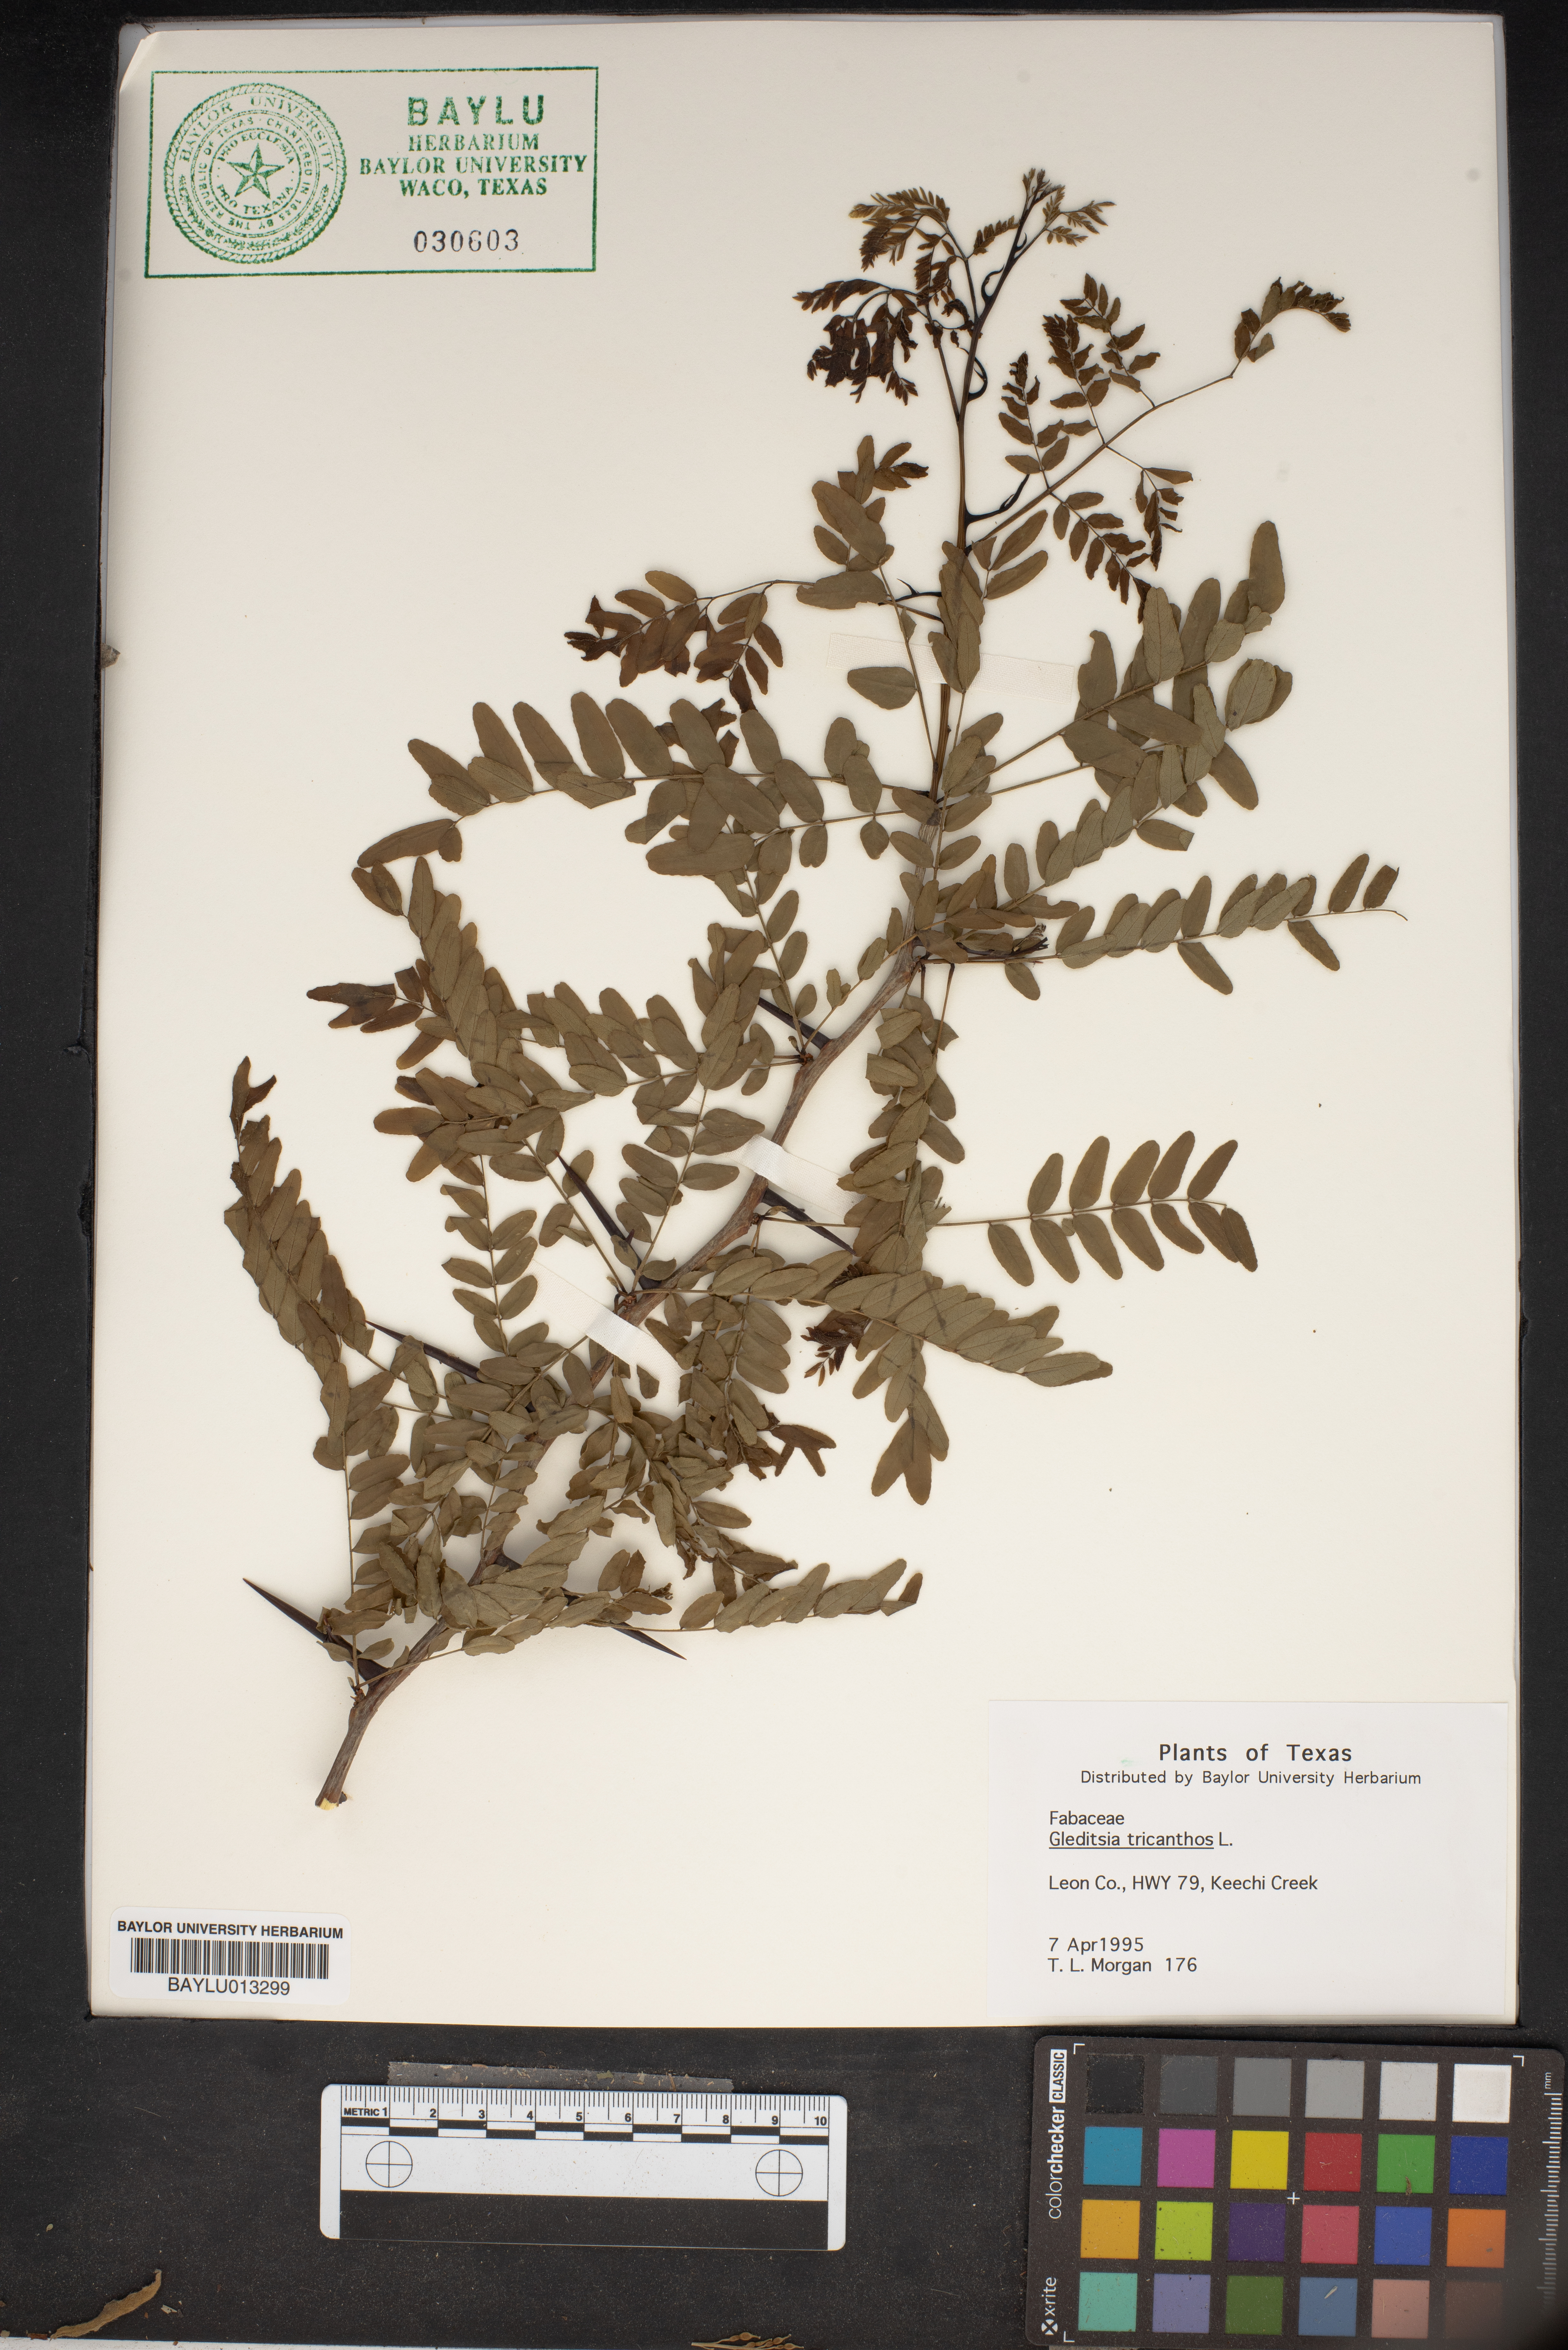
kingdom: Plantae
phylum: Tracheophyta
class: Magnoliopsida
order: Fabales
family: Fabaceae
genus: Gleditsia
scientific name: Gleditsia triacanthos
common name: Common honeylocust
